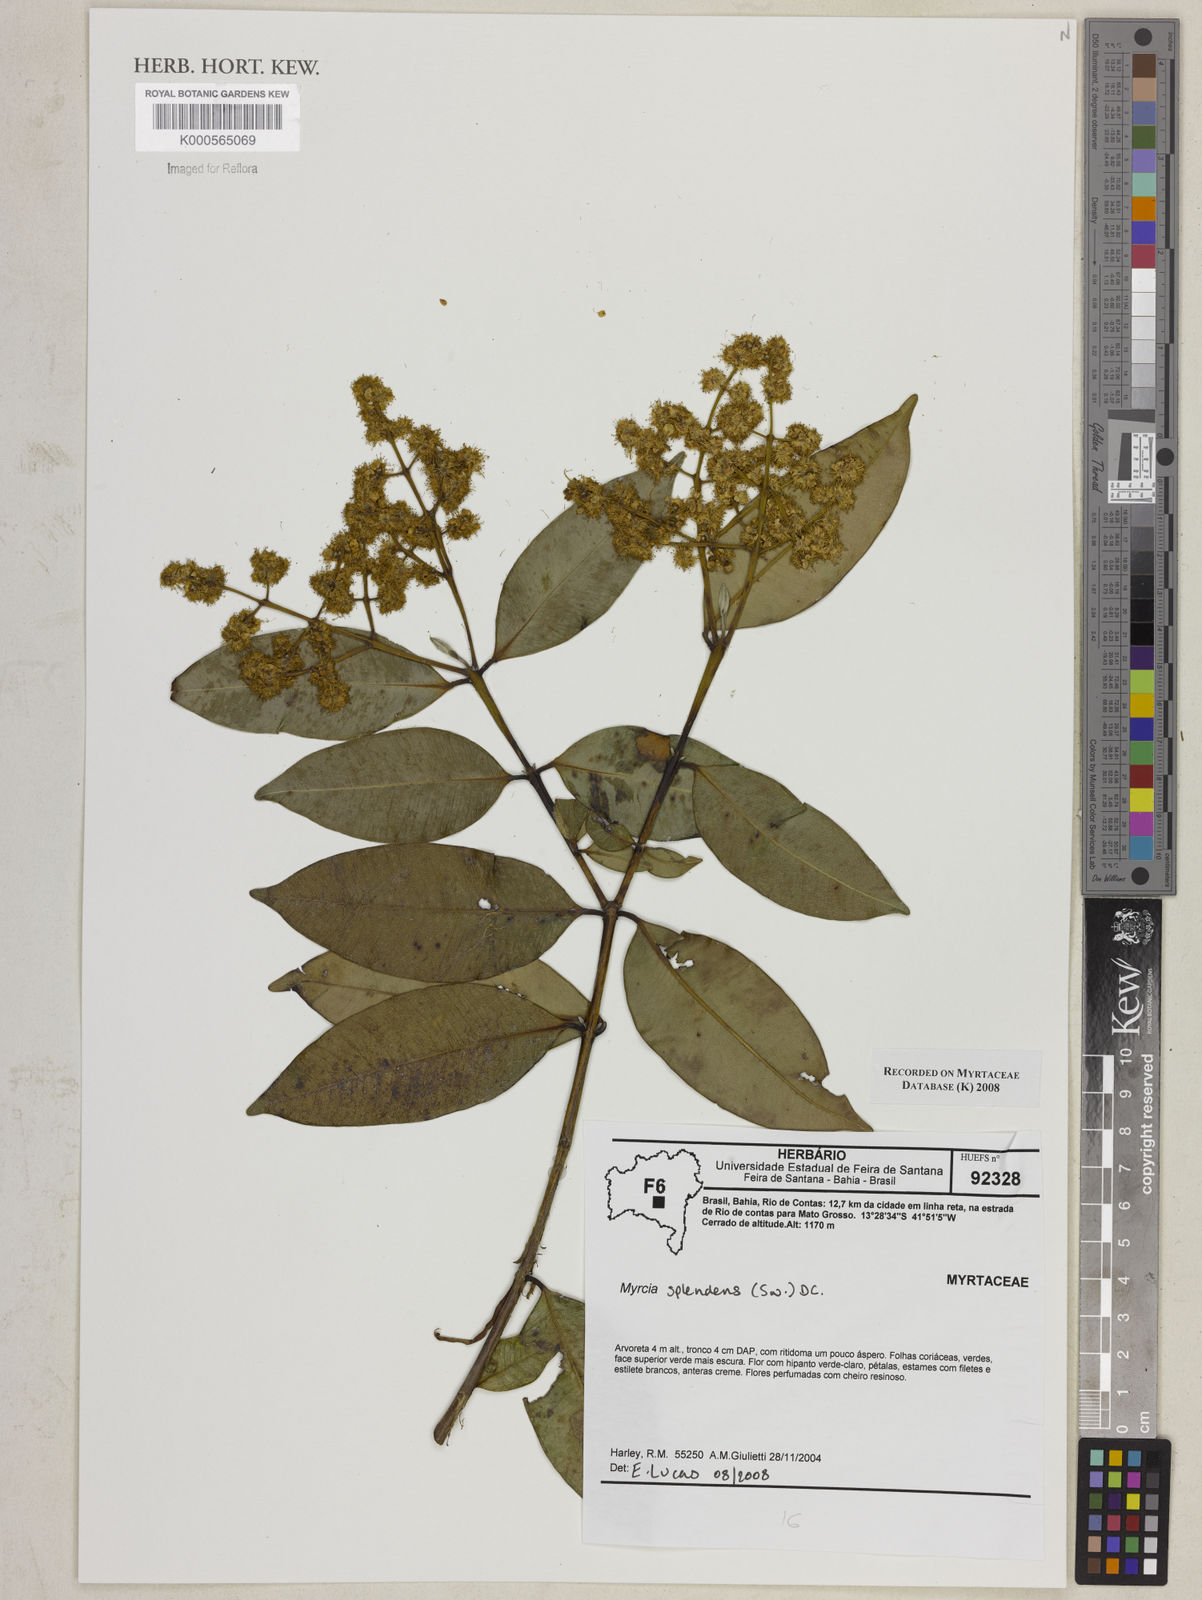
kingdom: Plantae
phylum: Tracheophyta
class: Magnoliopsida
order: Myrtales
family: Myrtaceae
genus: Myrcia
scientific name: Myrcia splendens
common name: Surinam cherry
